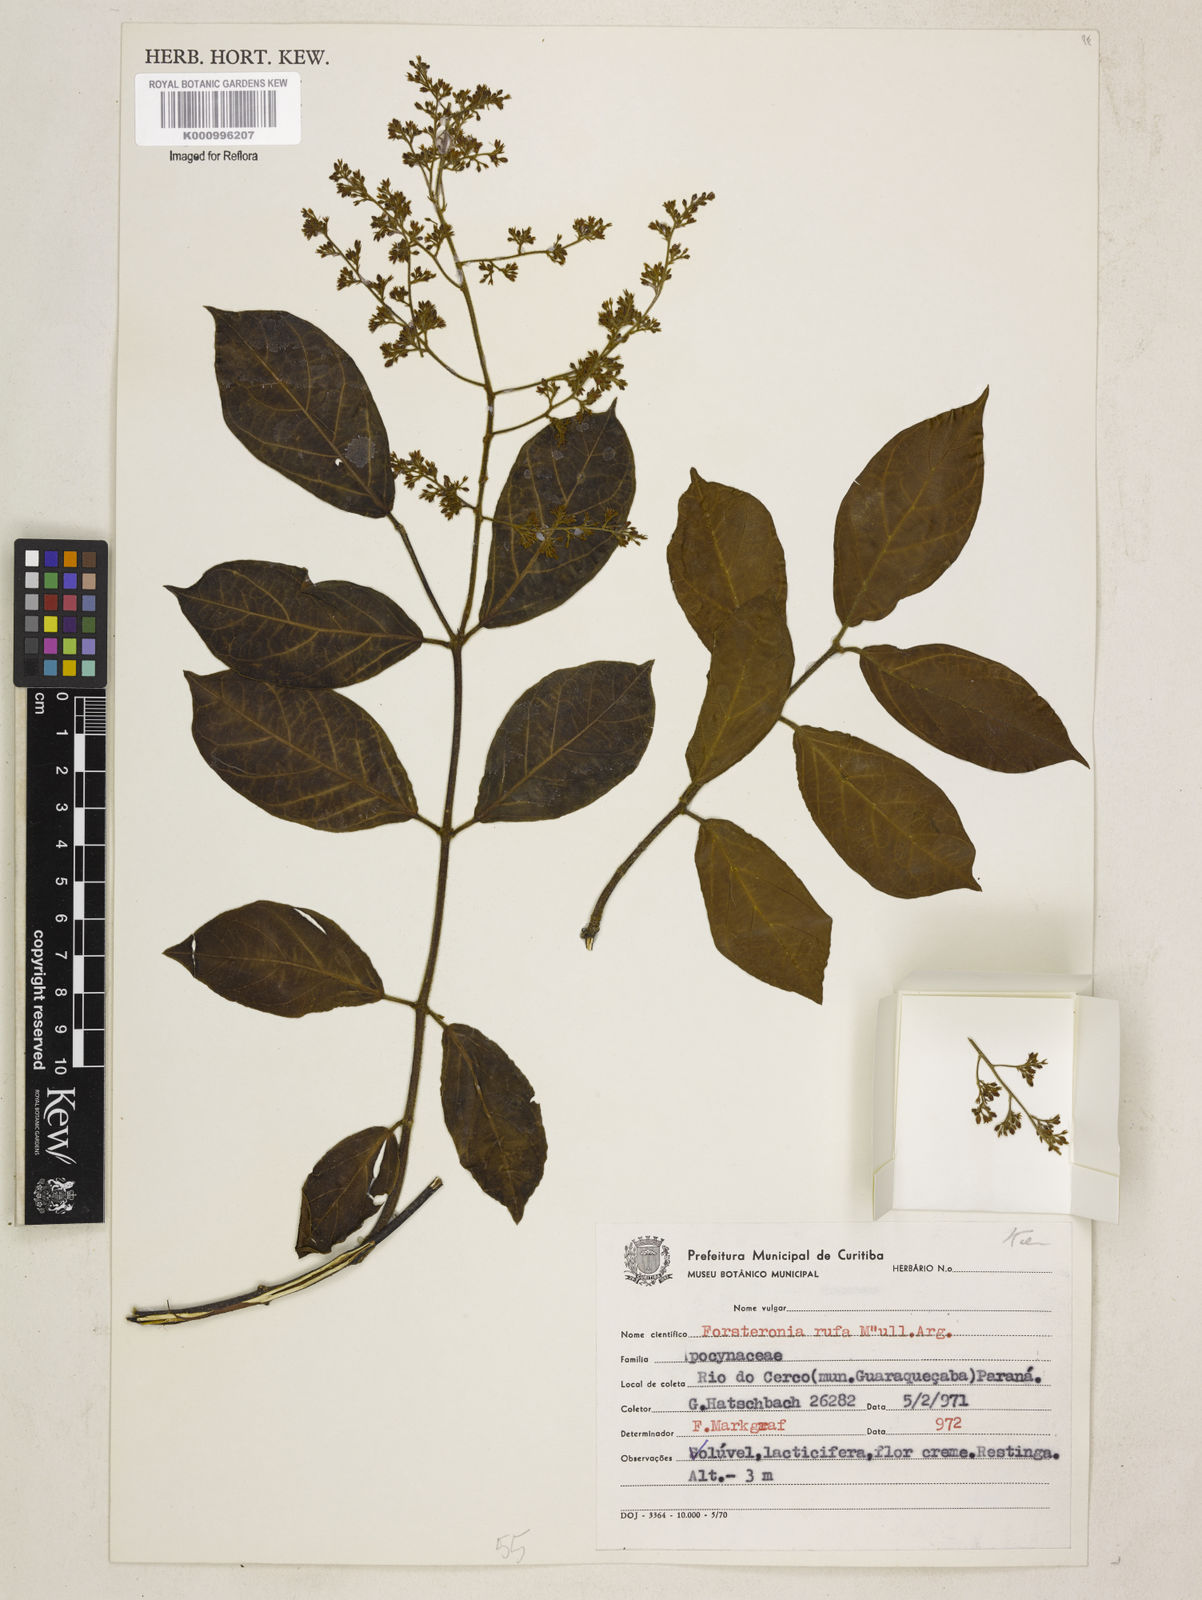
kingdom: Plantae
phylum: Tracheophyta
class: Magnoliopsida
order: Gentianales
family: Apocynaceae
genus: Forsteronia
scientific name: Forsteronia
